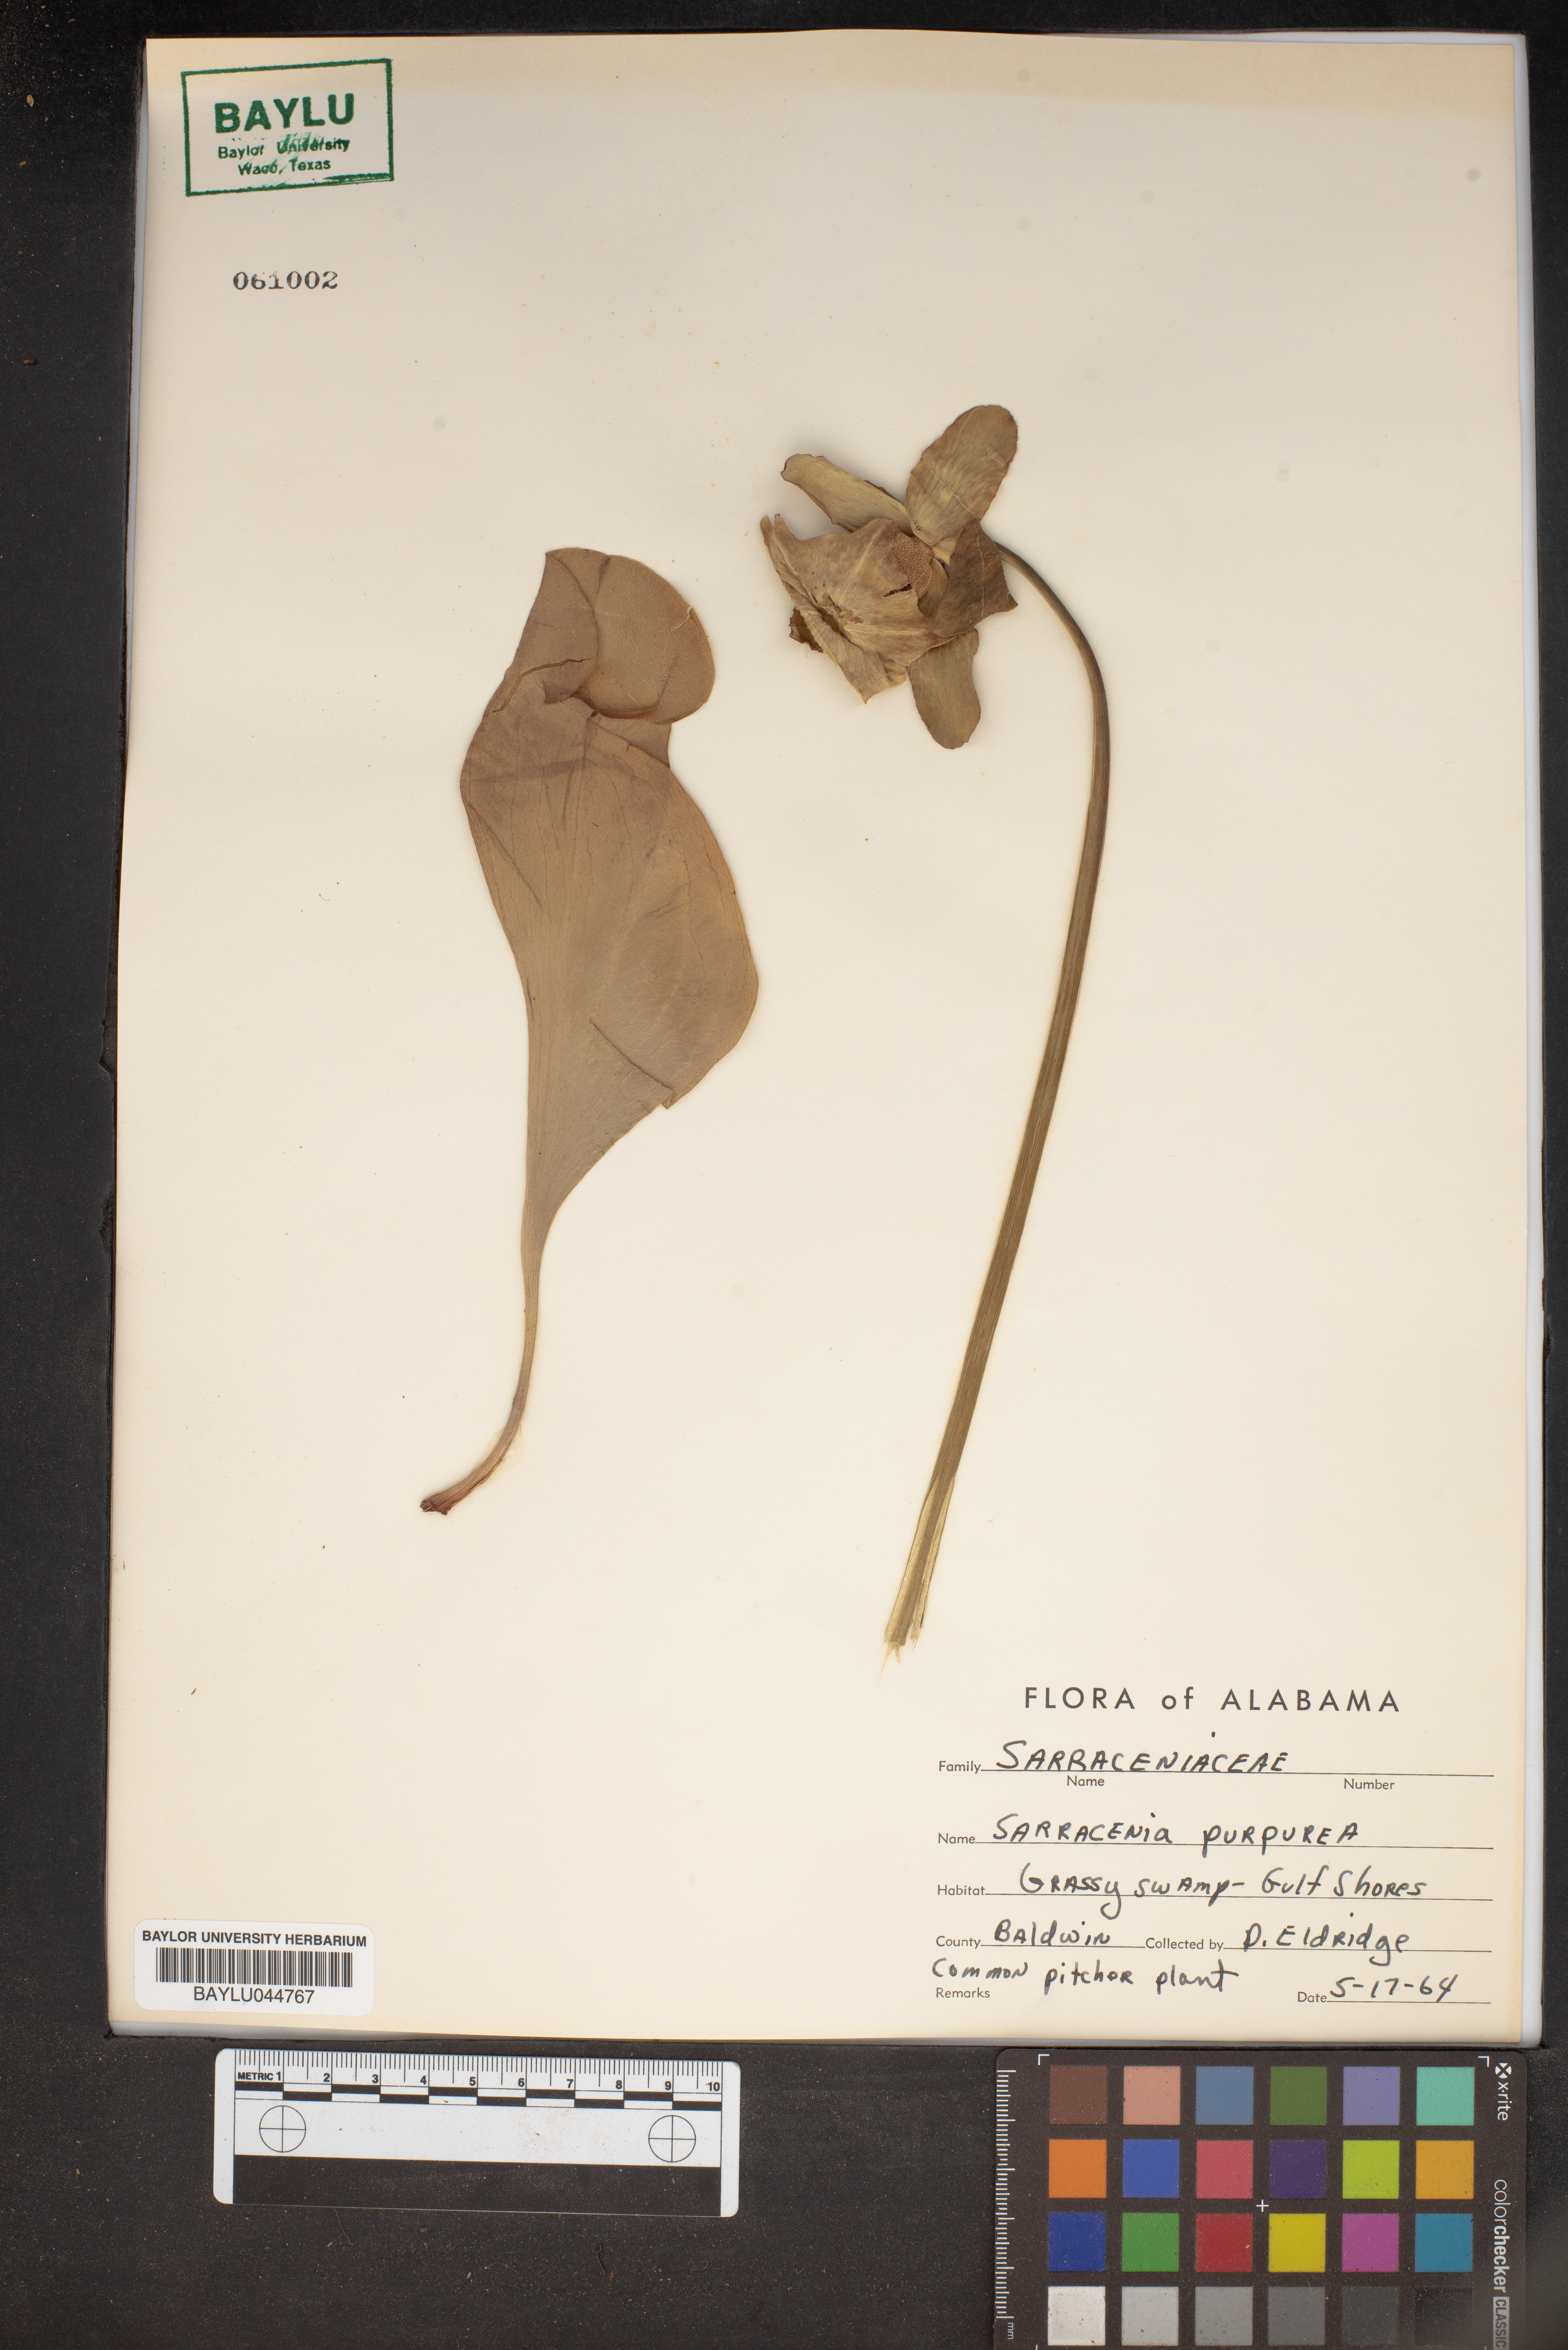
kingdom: Plantae
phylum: Tracheophyta
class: Magnoliopsida
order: Ericales
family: Sarraceniaceae
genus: Sarracenia
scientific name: Sarracenia purpurea
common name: Pitcherplant
